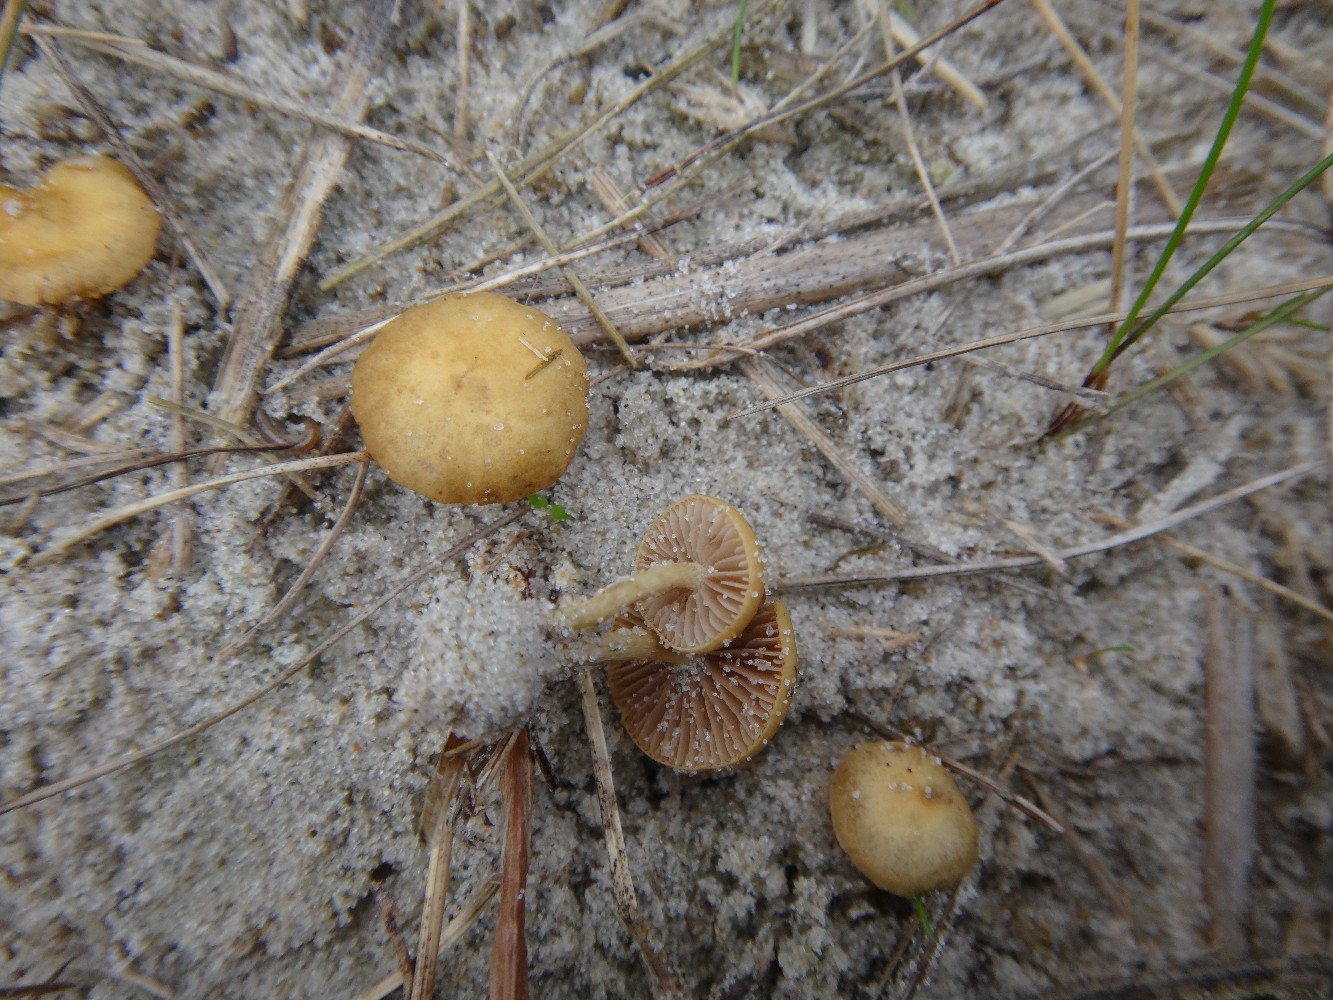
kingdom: Fungi
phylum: Basidiomycota
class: Agaricomycetes
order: Agaricales
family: Strophariaceae
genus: Agrocybe
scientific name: Agrocybe pusiola
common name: dværg-agerhat
